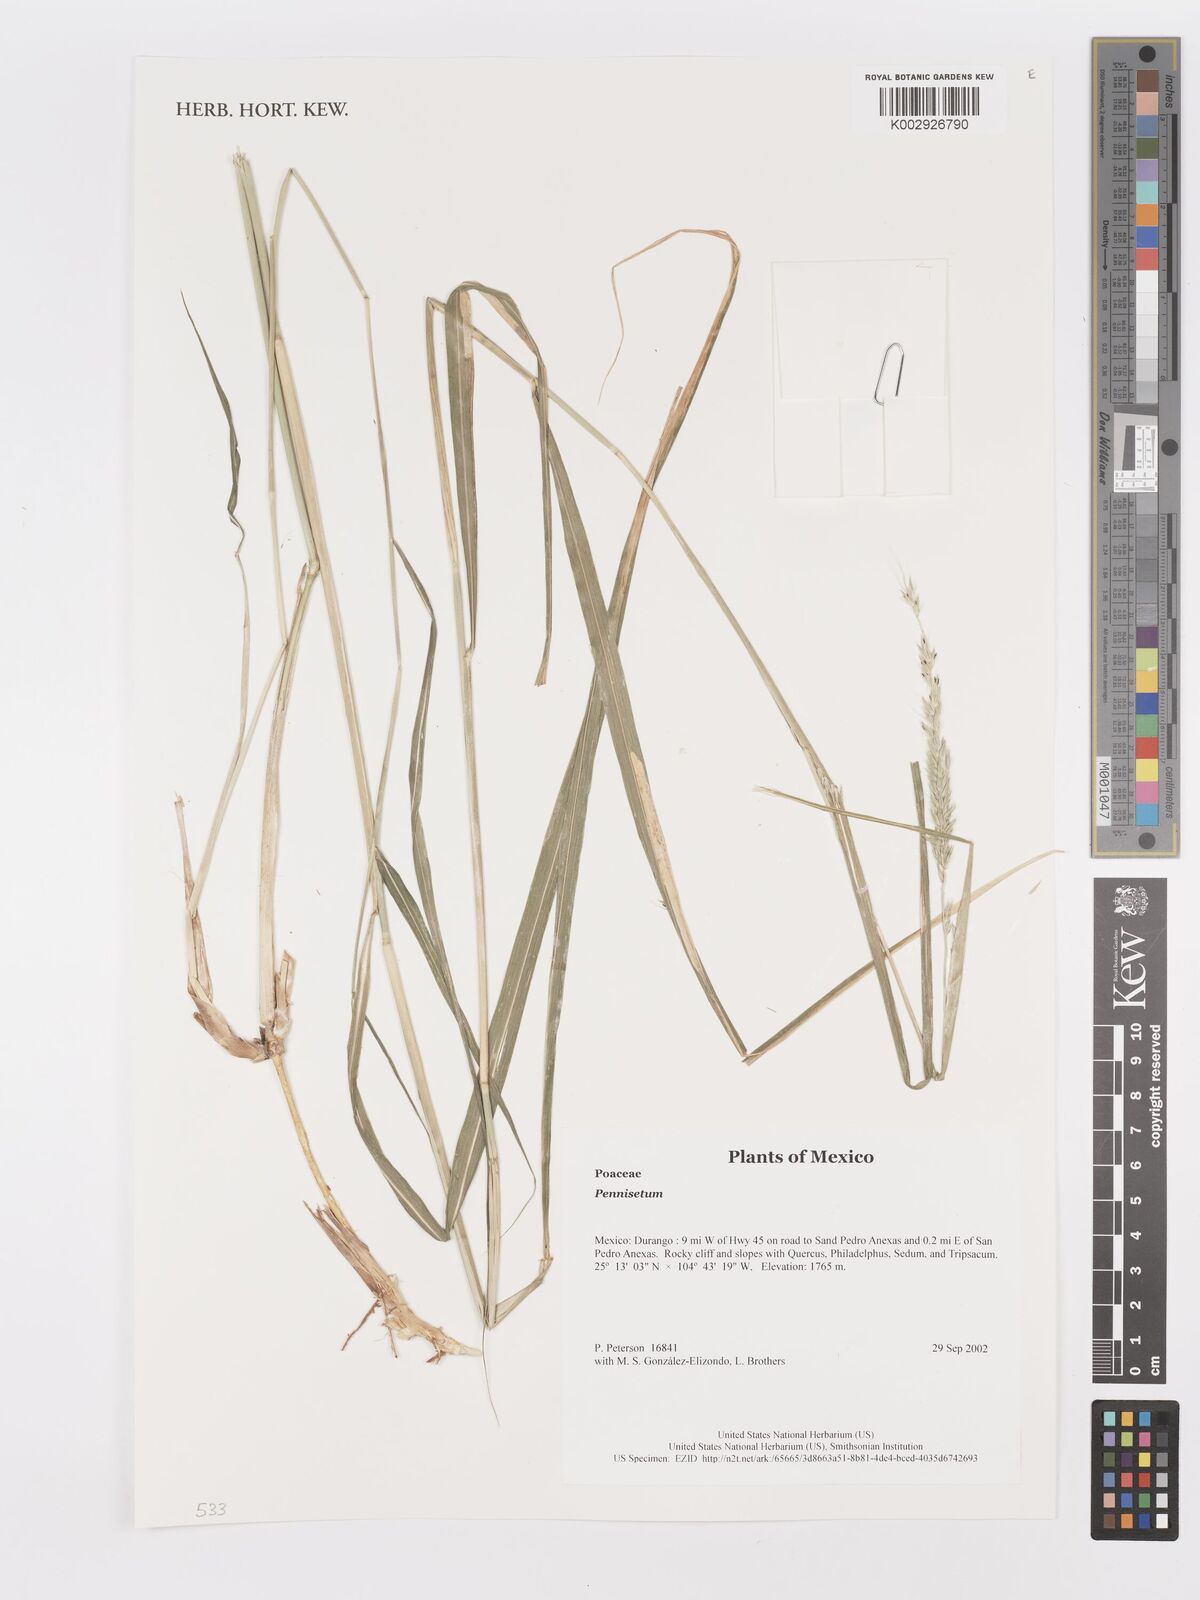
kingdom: Plantae
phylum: Tracheophyta
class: Liliopsida
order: Poales
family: Poaceae
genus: Cenchrus
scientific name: Cenchrus Pennisetum spec
